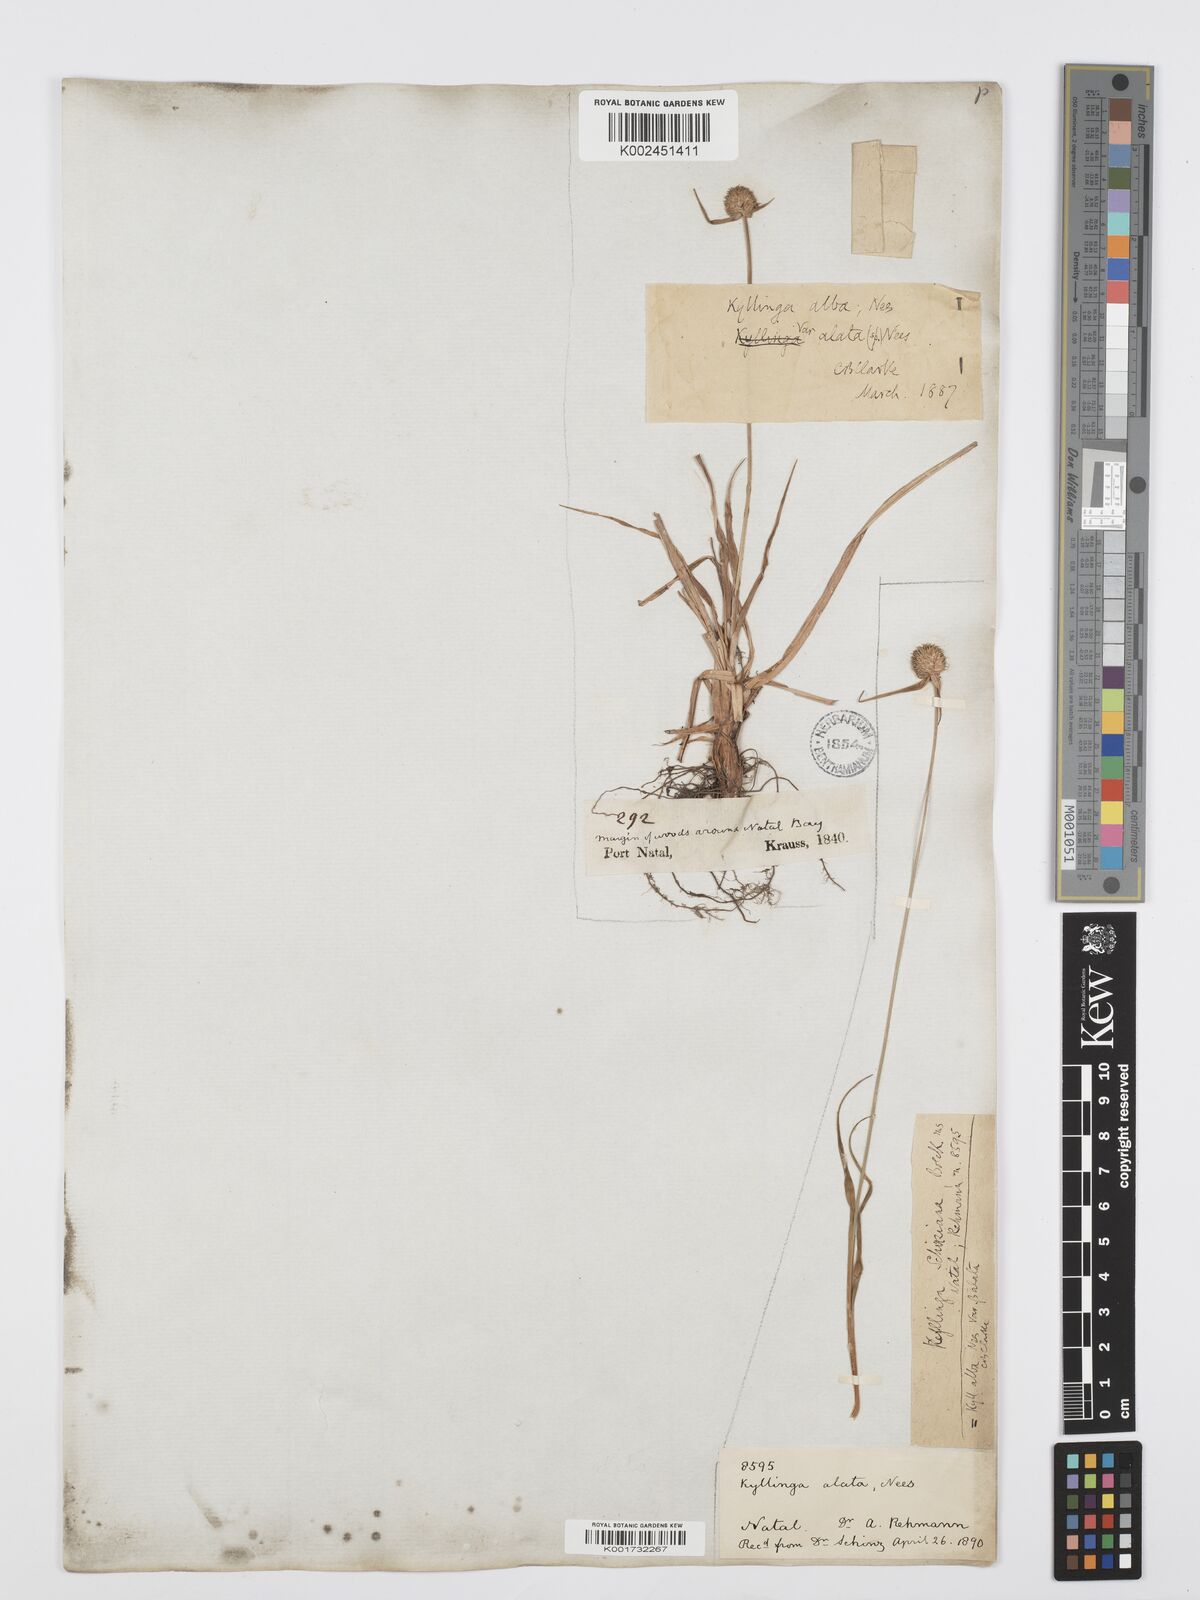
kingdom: Plantae
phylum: Tracheophyta
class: Liliopsida
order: Poales
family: Cyperaceae
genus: Cyperus
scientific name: Cyperus
